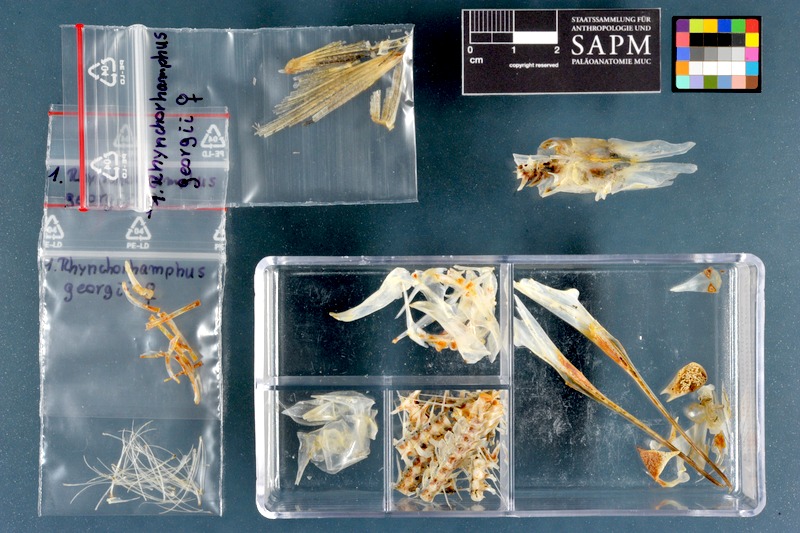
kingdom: Animalia
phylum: Chordata
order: Beloniformes
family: Hemiramphidae
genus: Rhynchorhamphus
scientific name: Rhynchorhamphus georgii
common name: Long billed half beak
